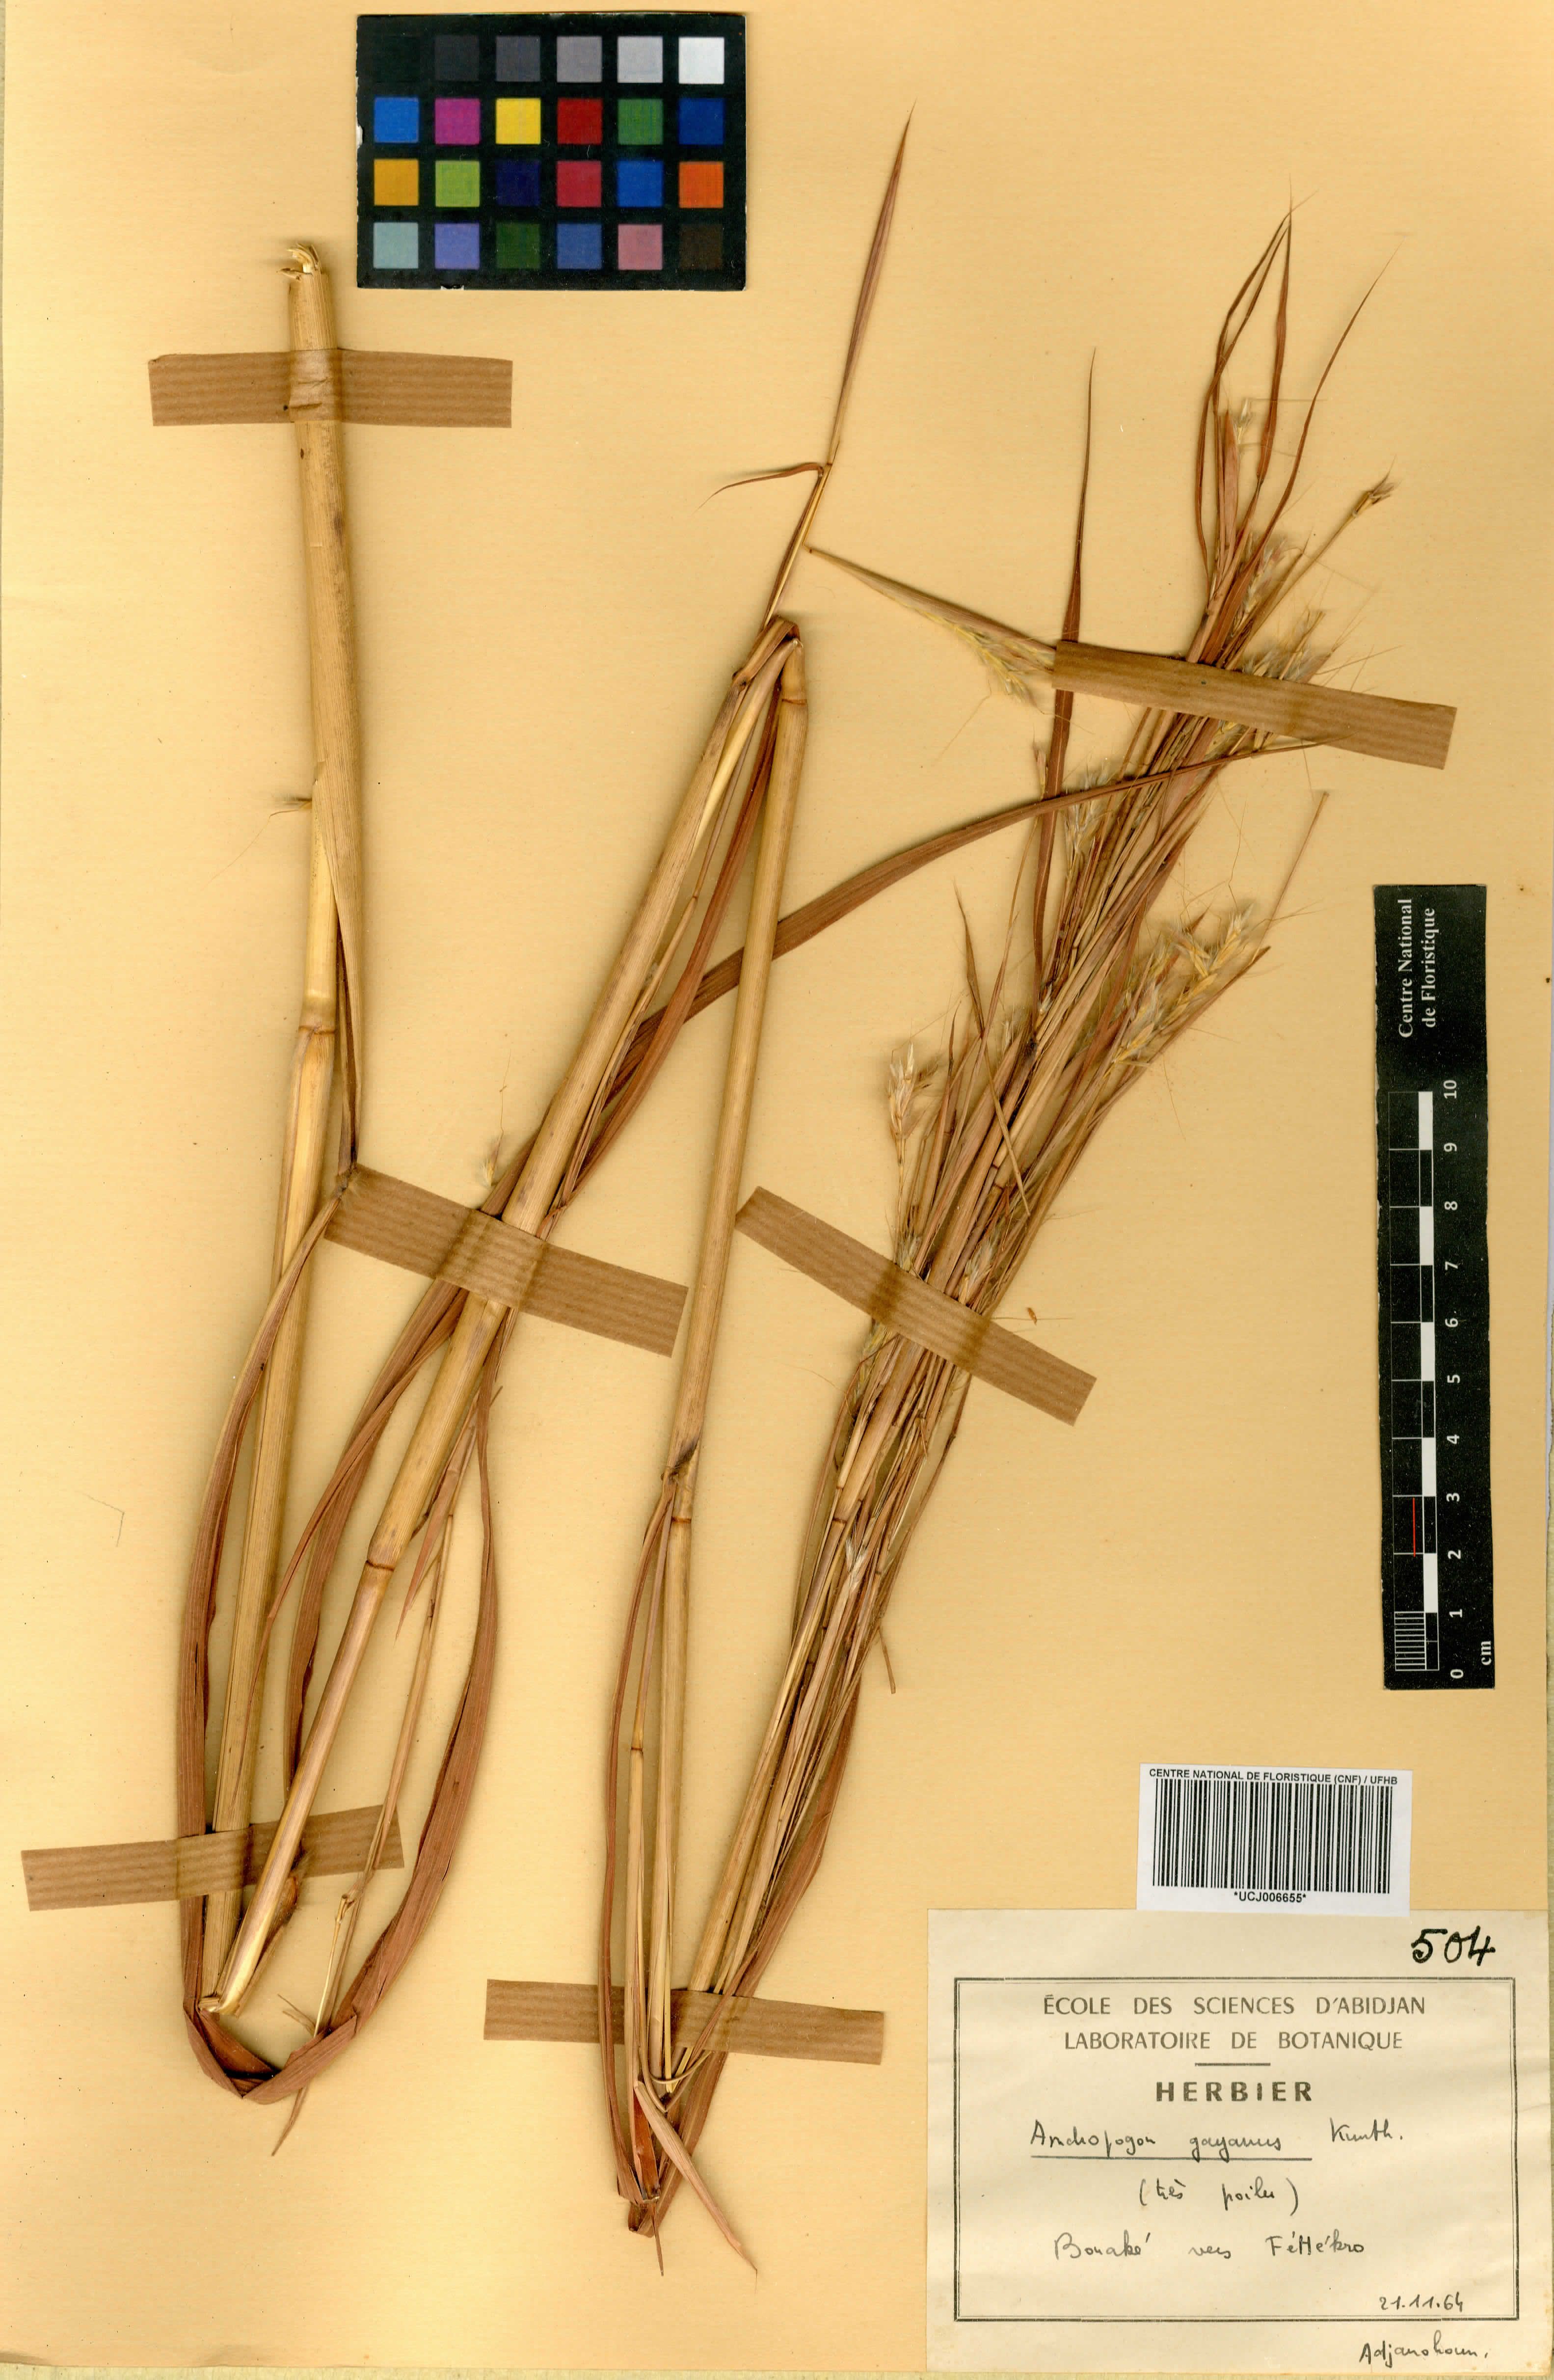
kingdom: Plantae
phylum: Tracheophyta
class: Liliopsida
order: Poales
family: Poaceae
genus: Andropogon
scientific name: Andropogon gayanus
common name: Tambuki grass
